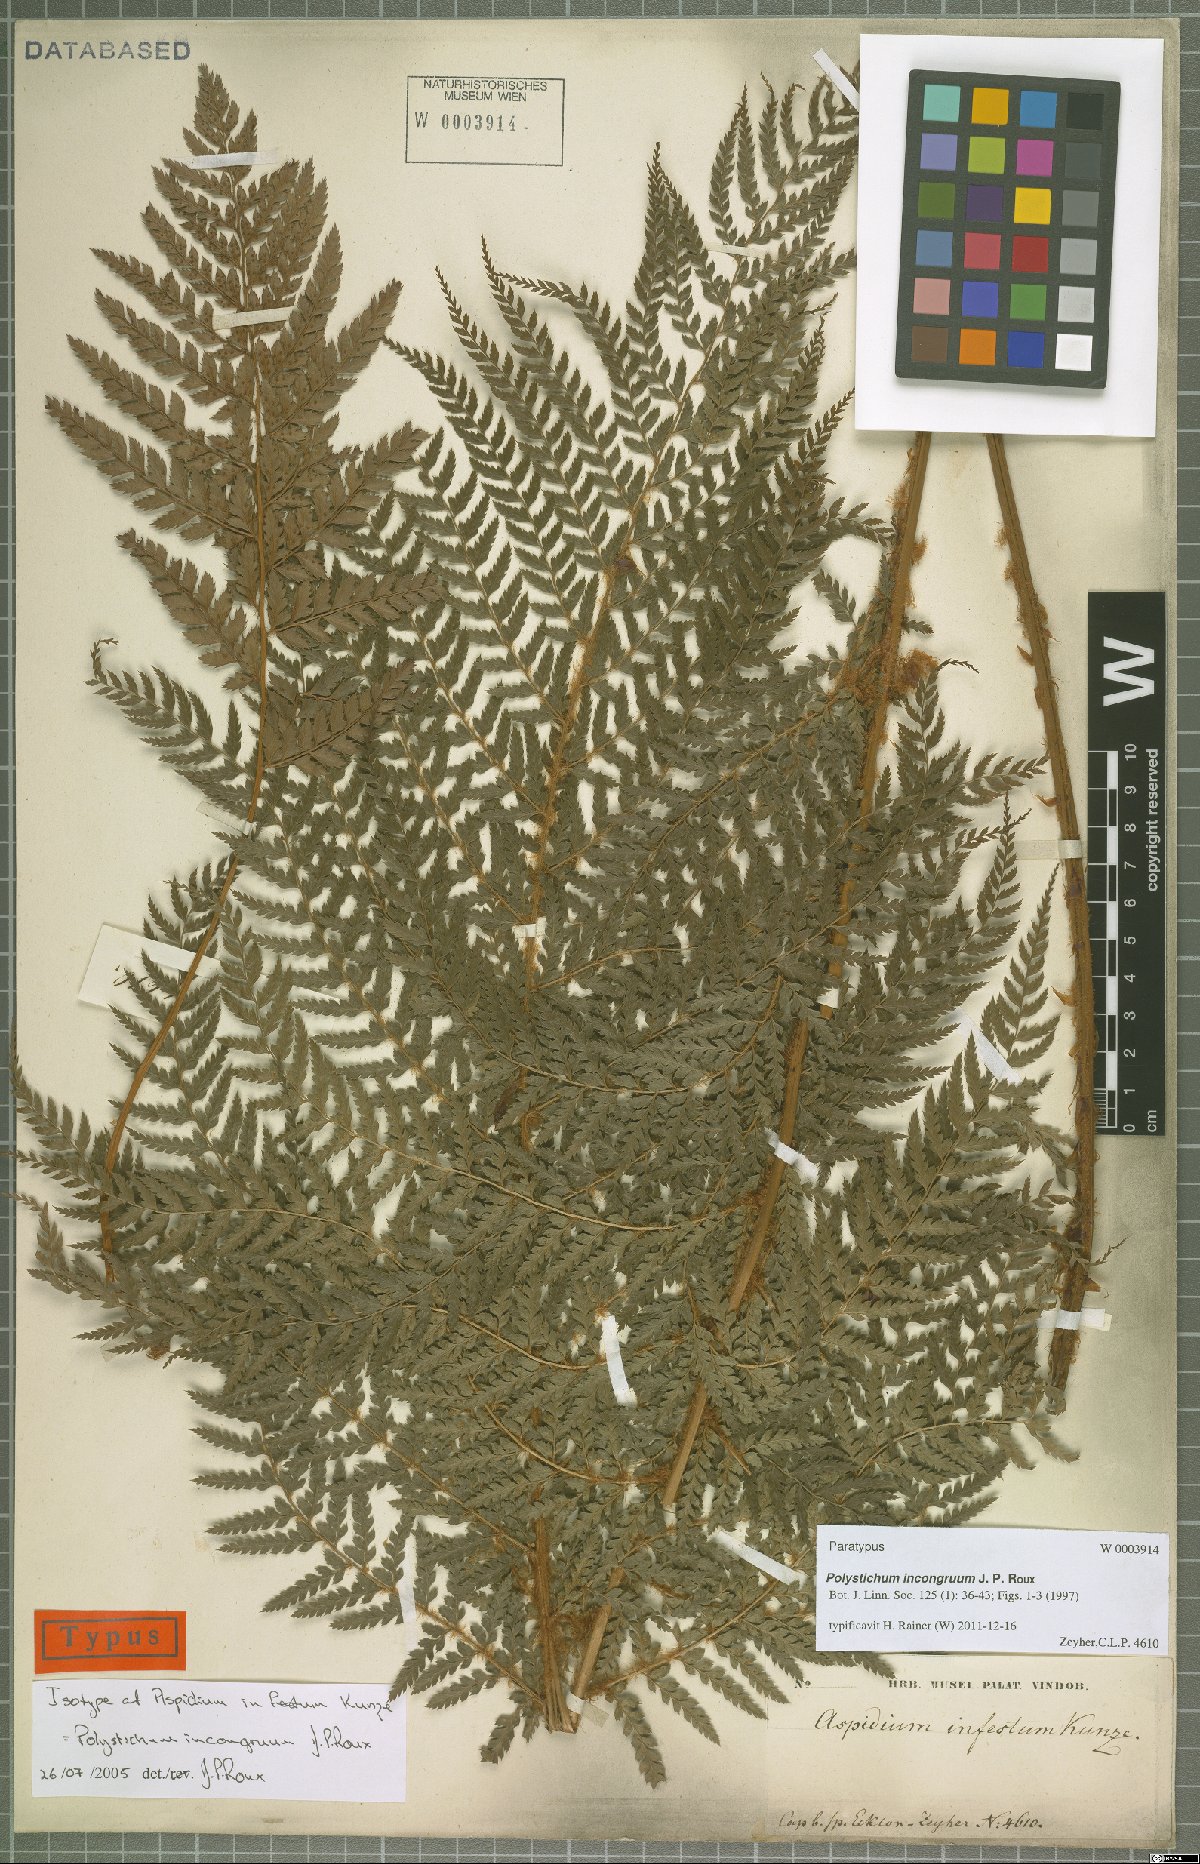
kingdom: Plantae
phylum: Tracheophyta
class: Polypodiopsida
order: Polypodiales
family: Dryopteridaceae
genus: Polystichum
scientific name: Polystichum incongruum
